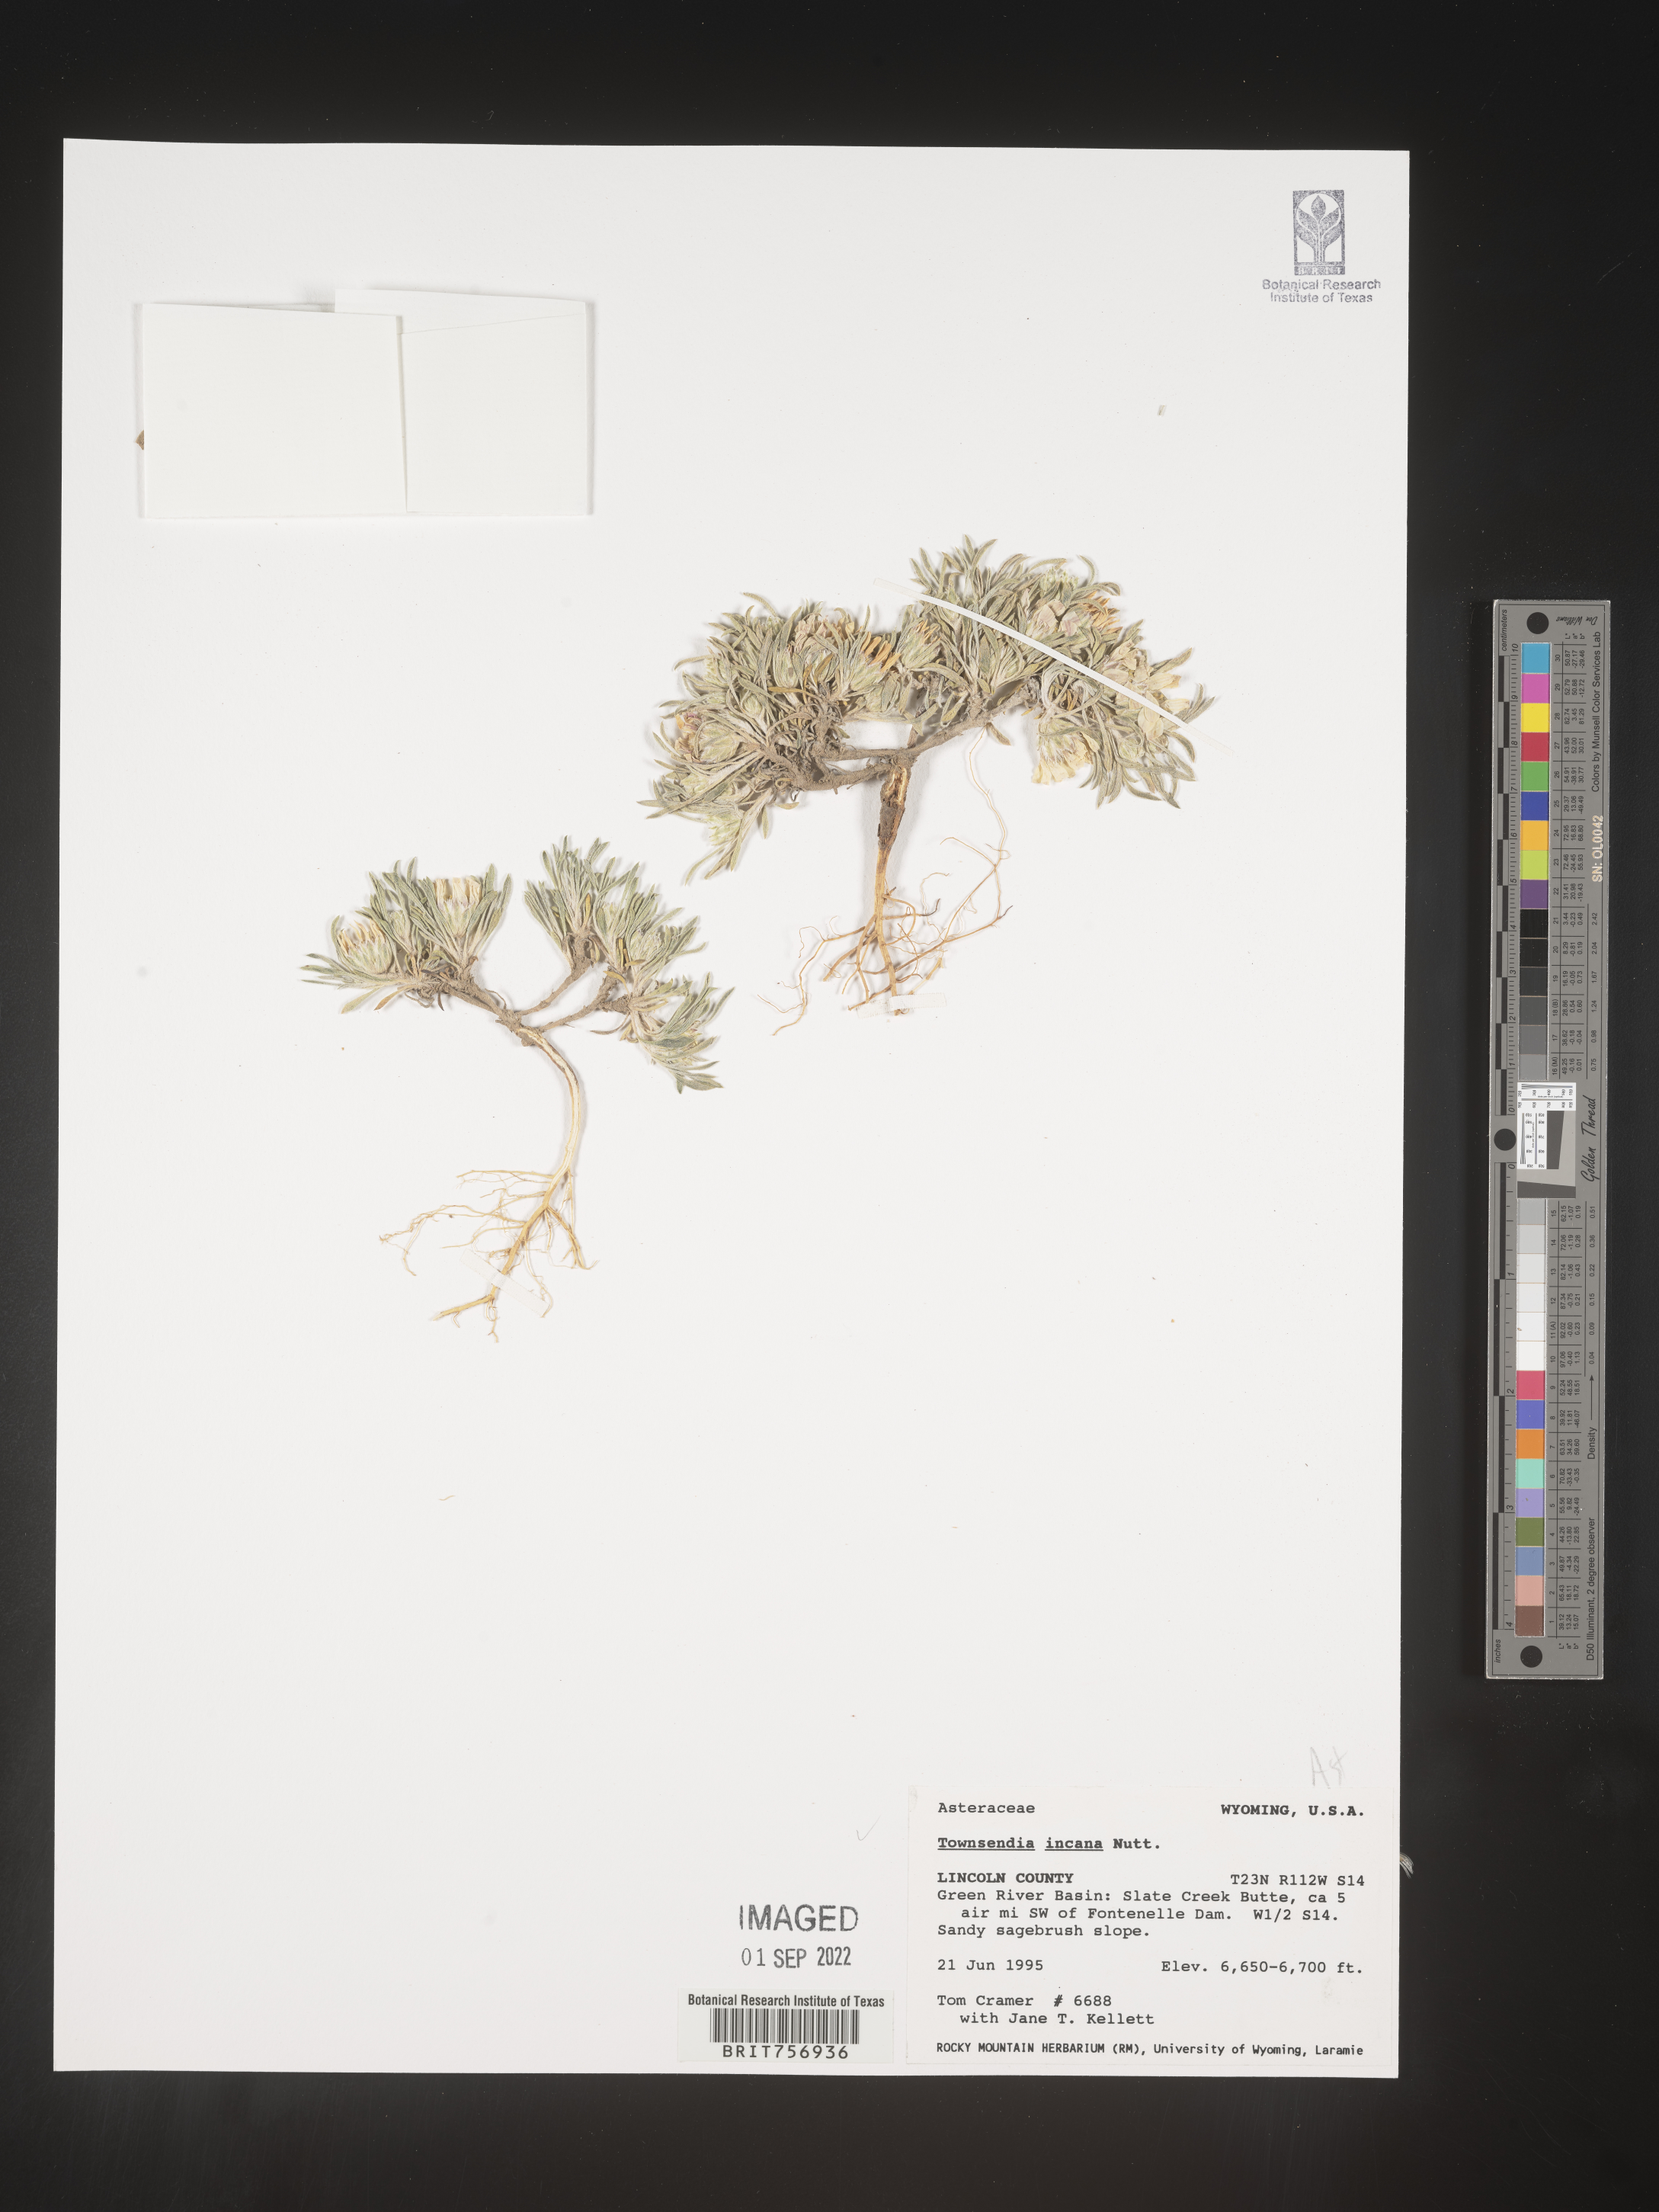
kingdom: Plantae
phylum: Tracheophyta
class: Magnoliopsida
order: Asterales
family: Asteraceae
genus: Townsendia
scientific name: Townsendia incana
